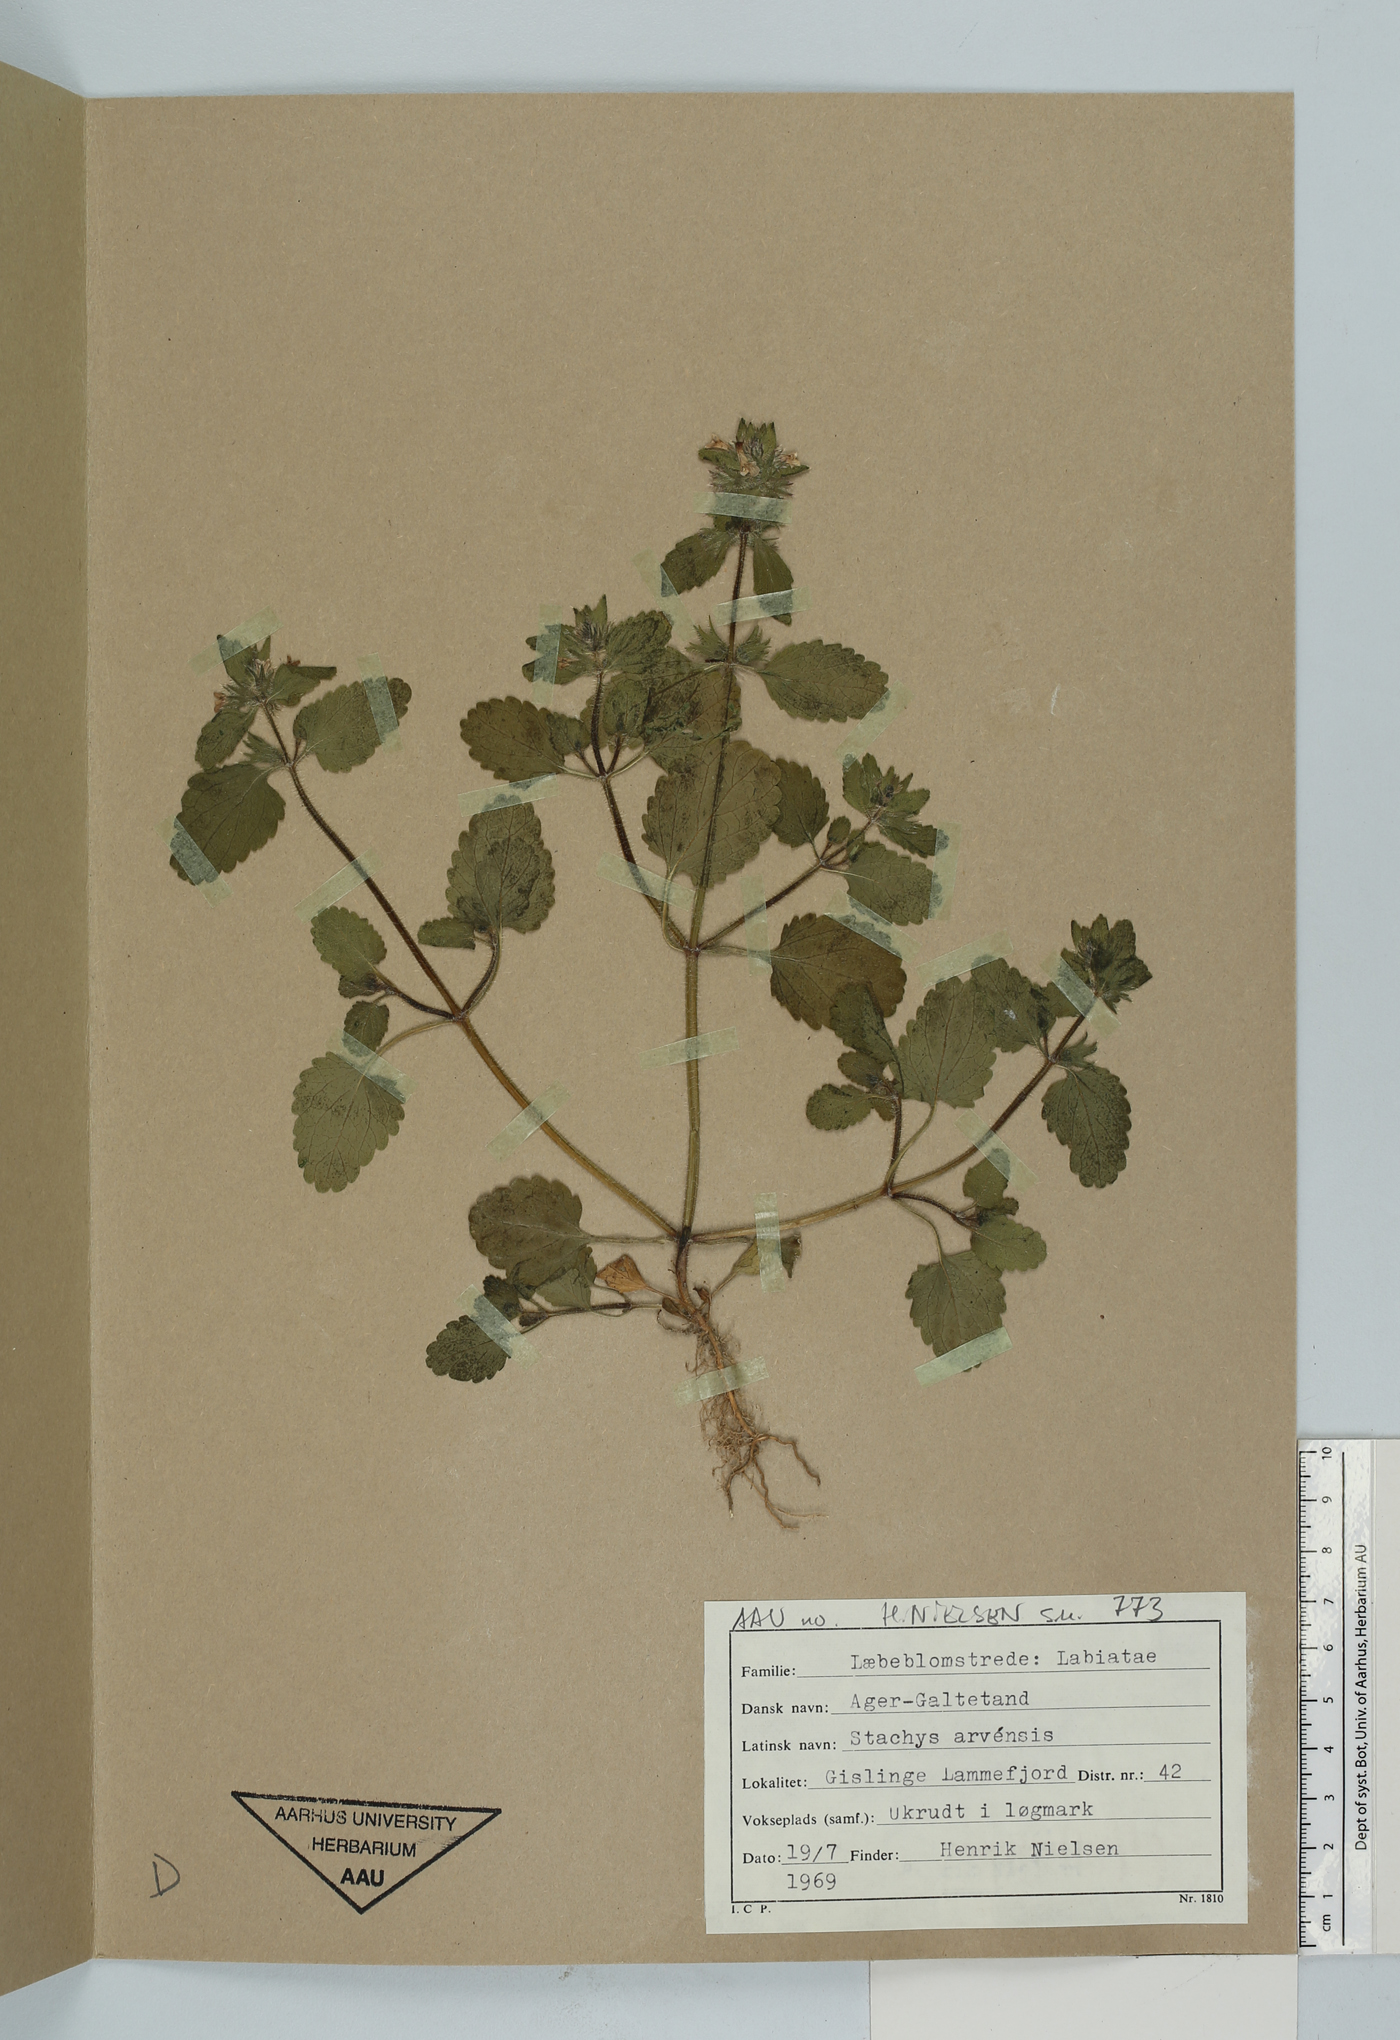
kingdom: Plantae
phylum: Tracheophyta
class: Magnoliopsida
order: Lamiales
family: Lamiaceae
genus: Stachys
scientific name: Stachys arvensis
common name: Field woundwort
